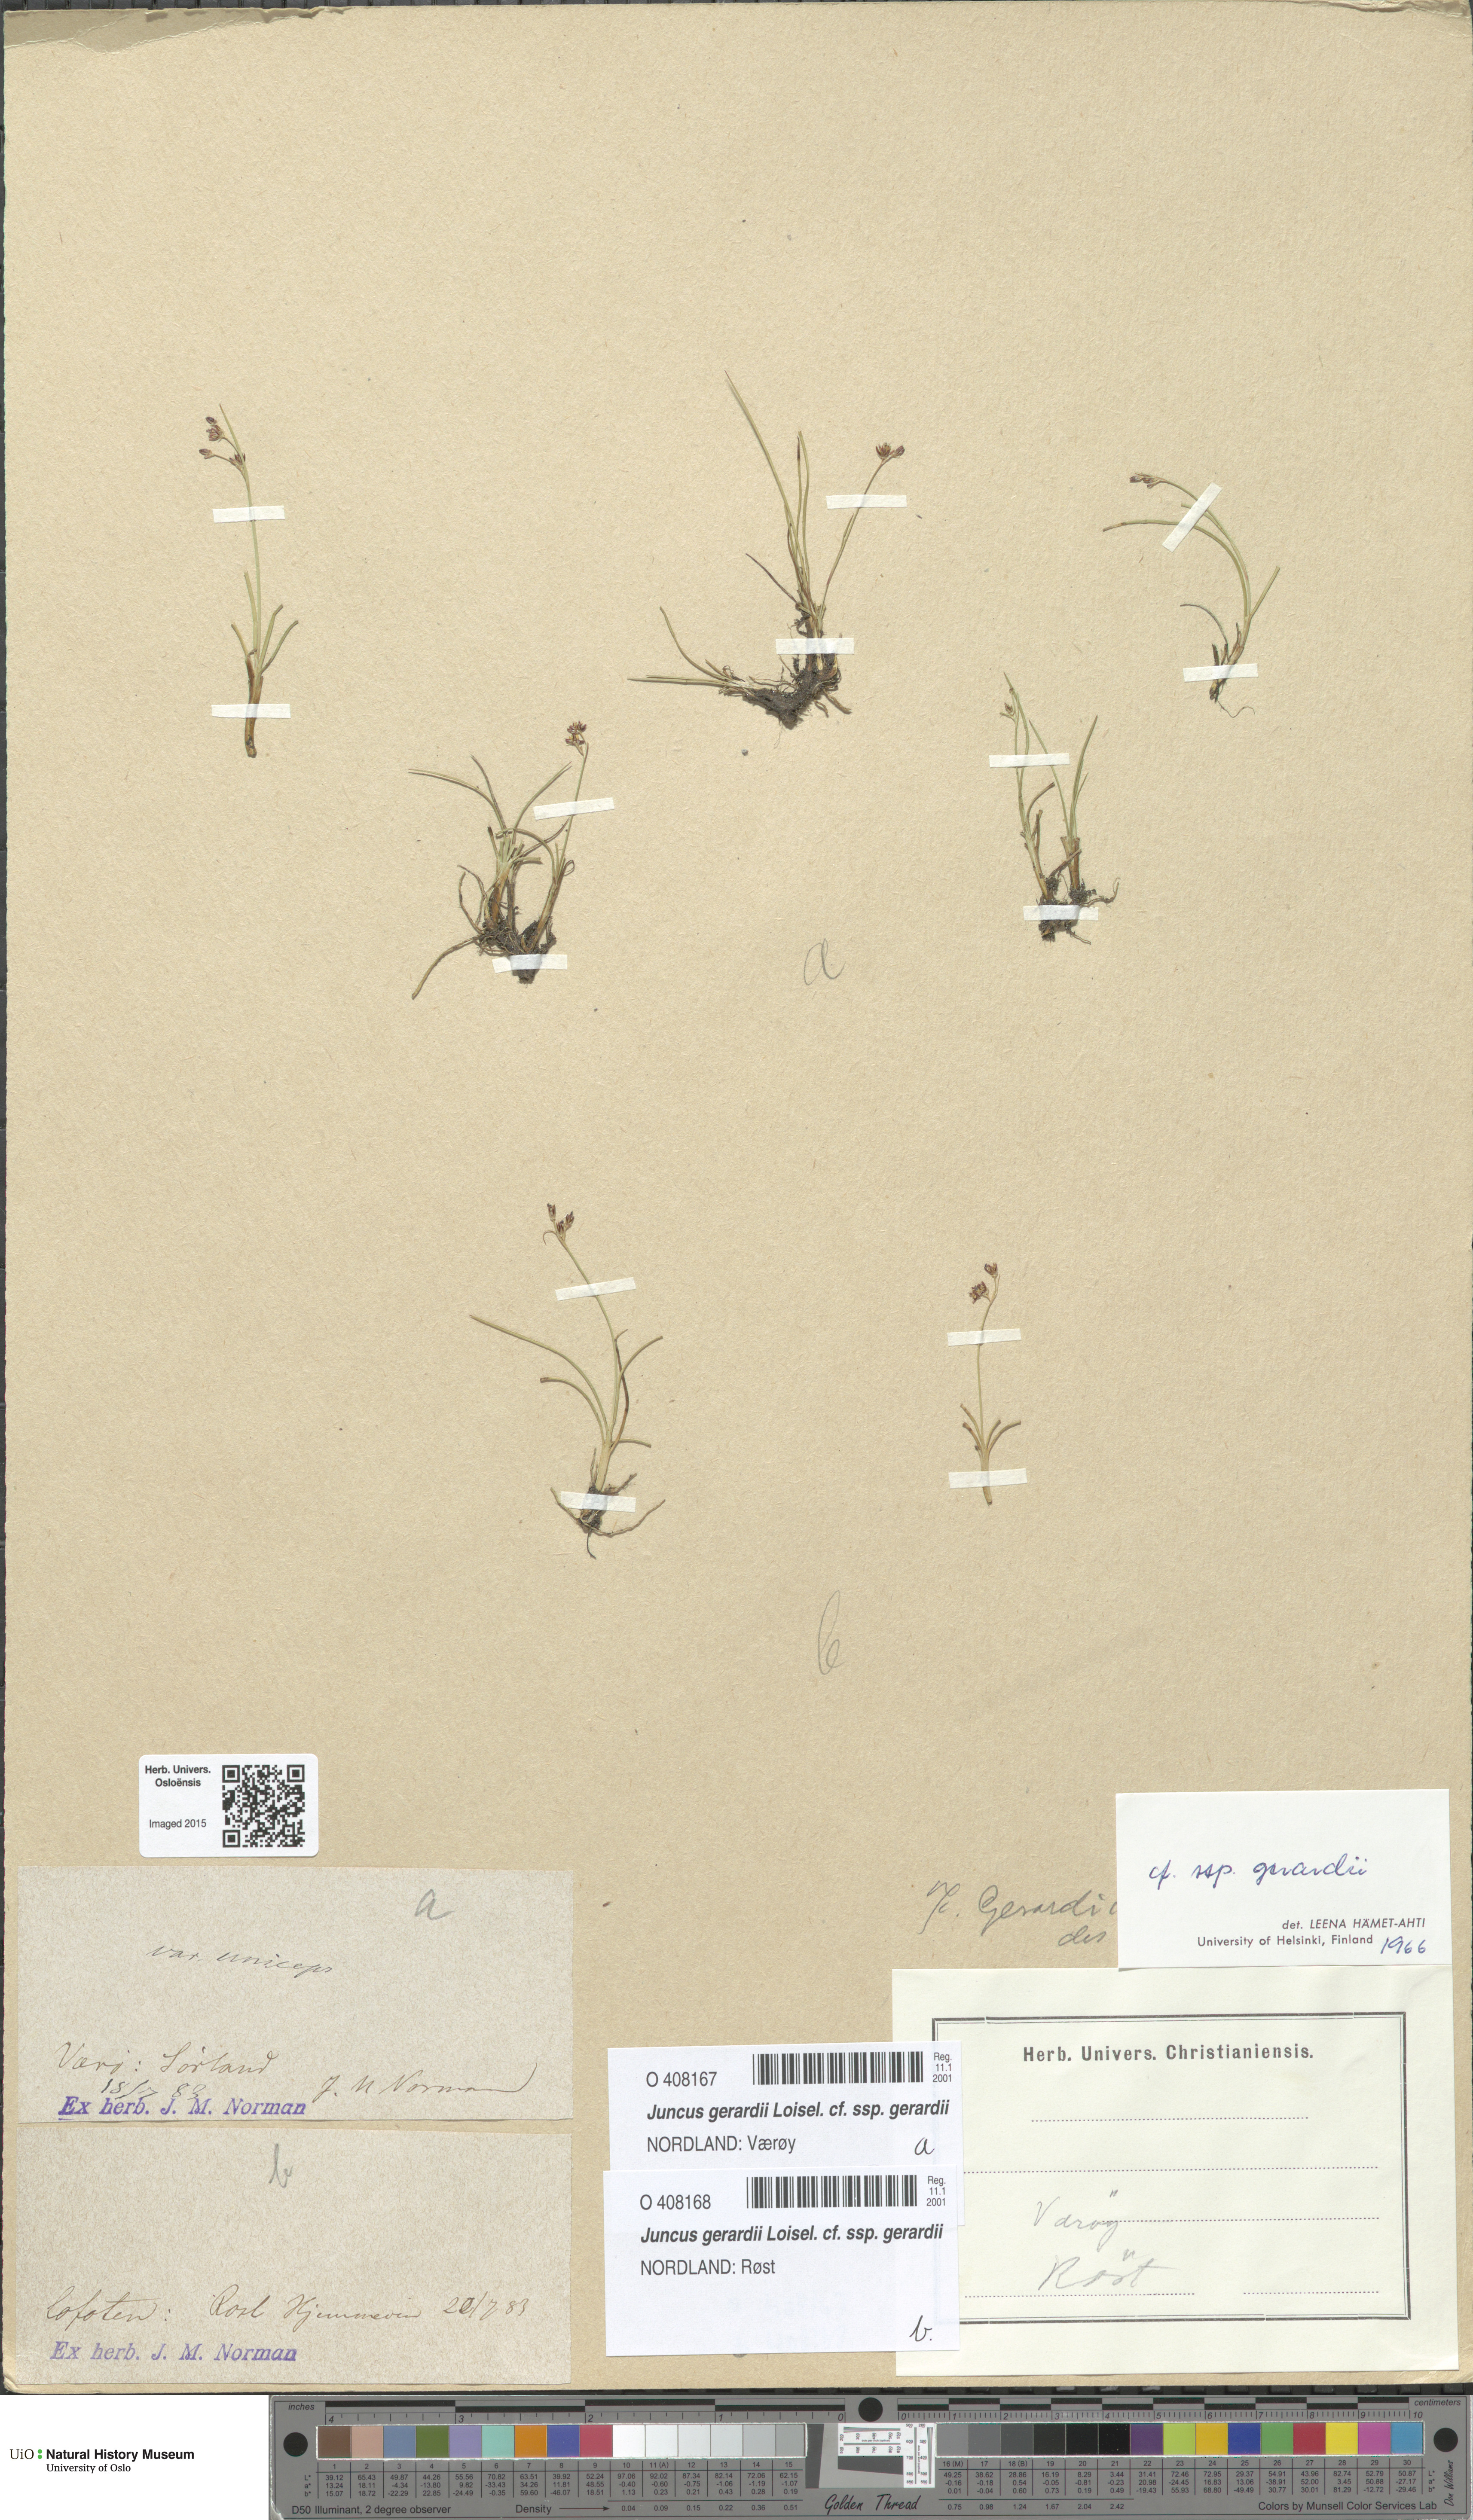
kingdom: Plantae
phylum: Tracheophyta
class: Liliopsida
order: Poales
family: Juncaceae
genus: Juncus
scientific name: Juncus gerardi
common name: Saltmarsh rush
